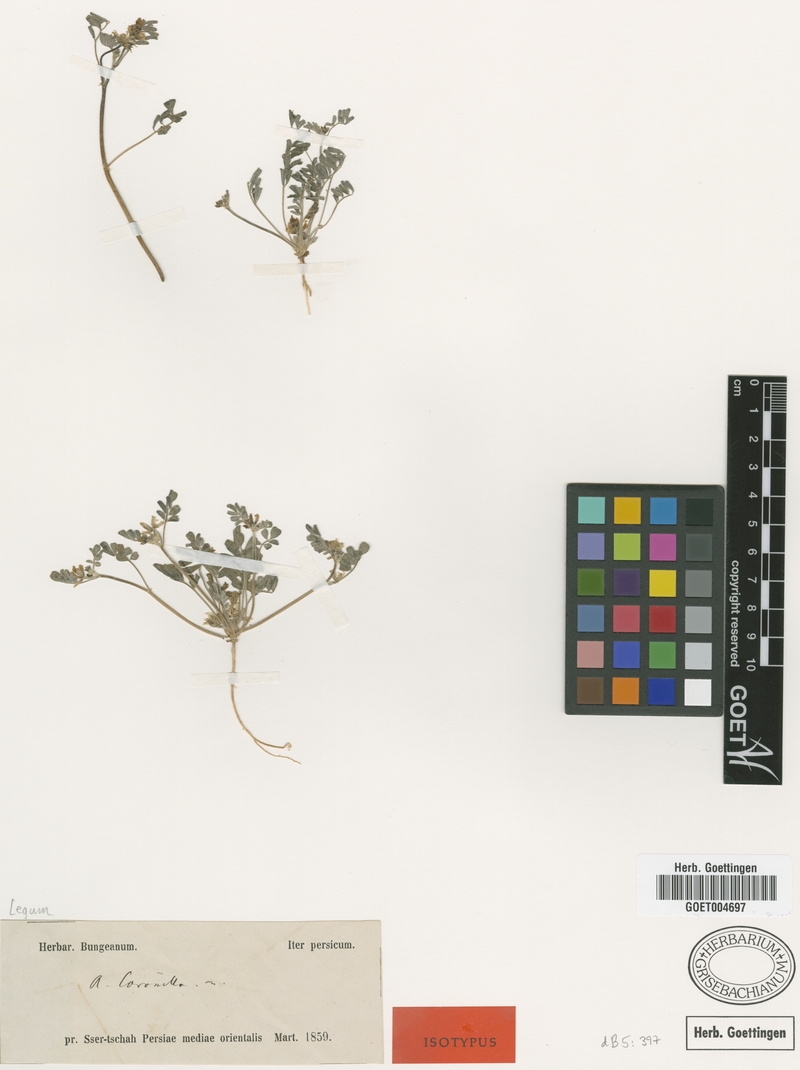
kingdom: Plantae
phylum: Tracheophyta
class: Magnoliopsida
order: Fabales
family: Fabaceae
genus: Astragalus
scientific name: Astragalus coronilla
